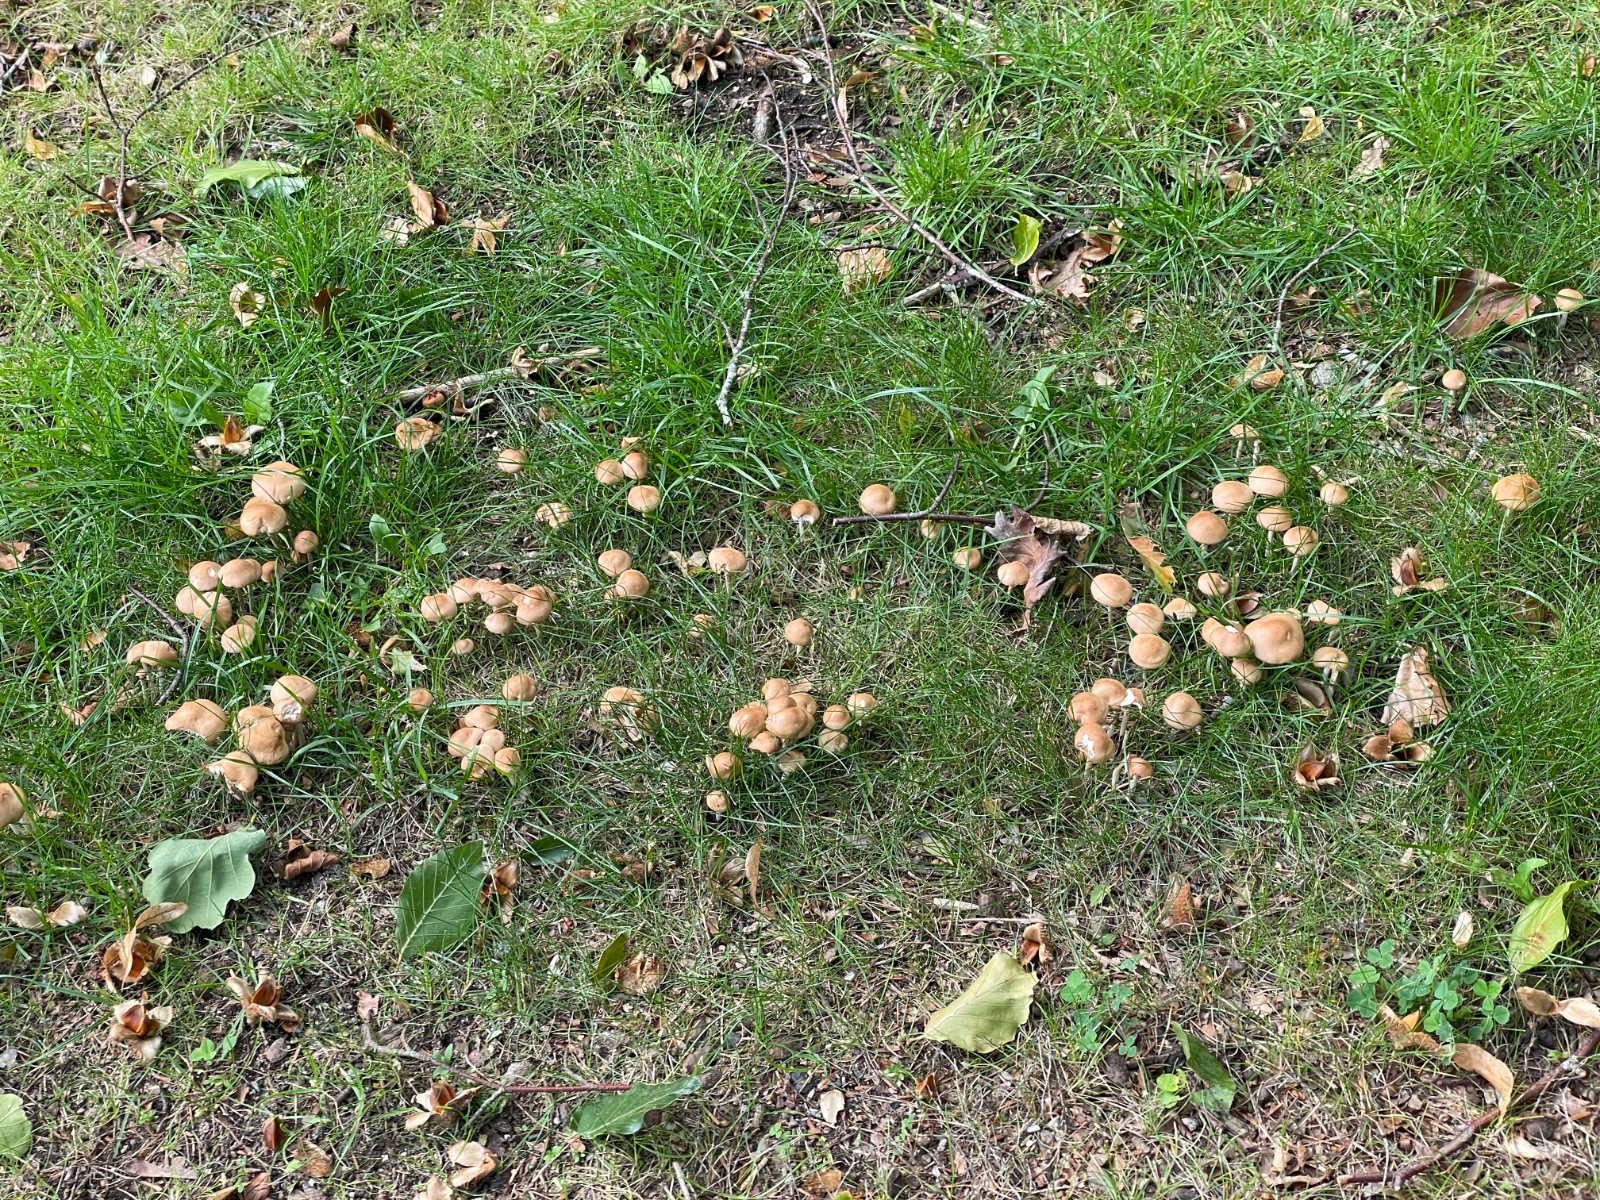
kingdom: Fungi
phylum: Basidiomycota
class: Agaricomycetes
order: Agaricales
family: Marasmiaceae
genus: Marasmius
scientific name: Marasmius oreades
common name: elledans-bruskhat
